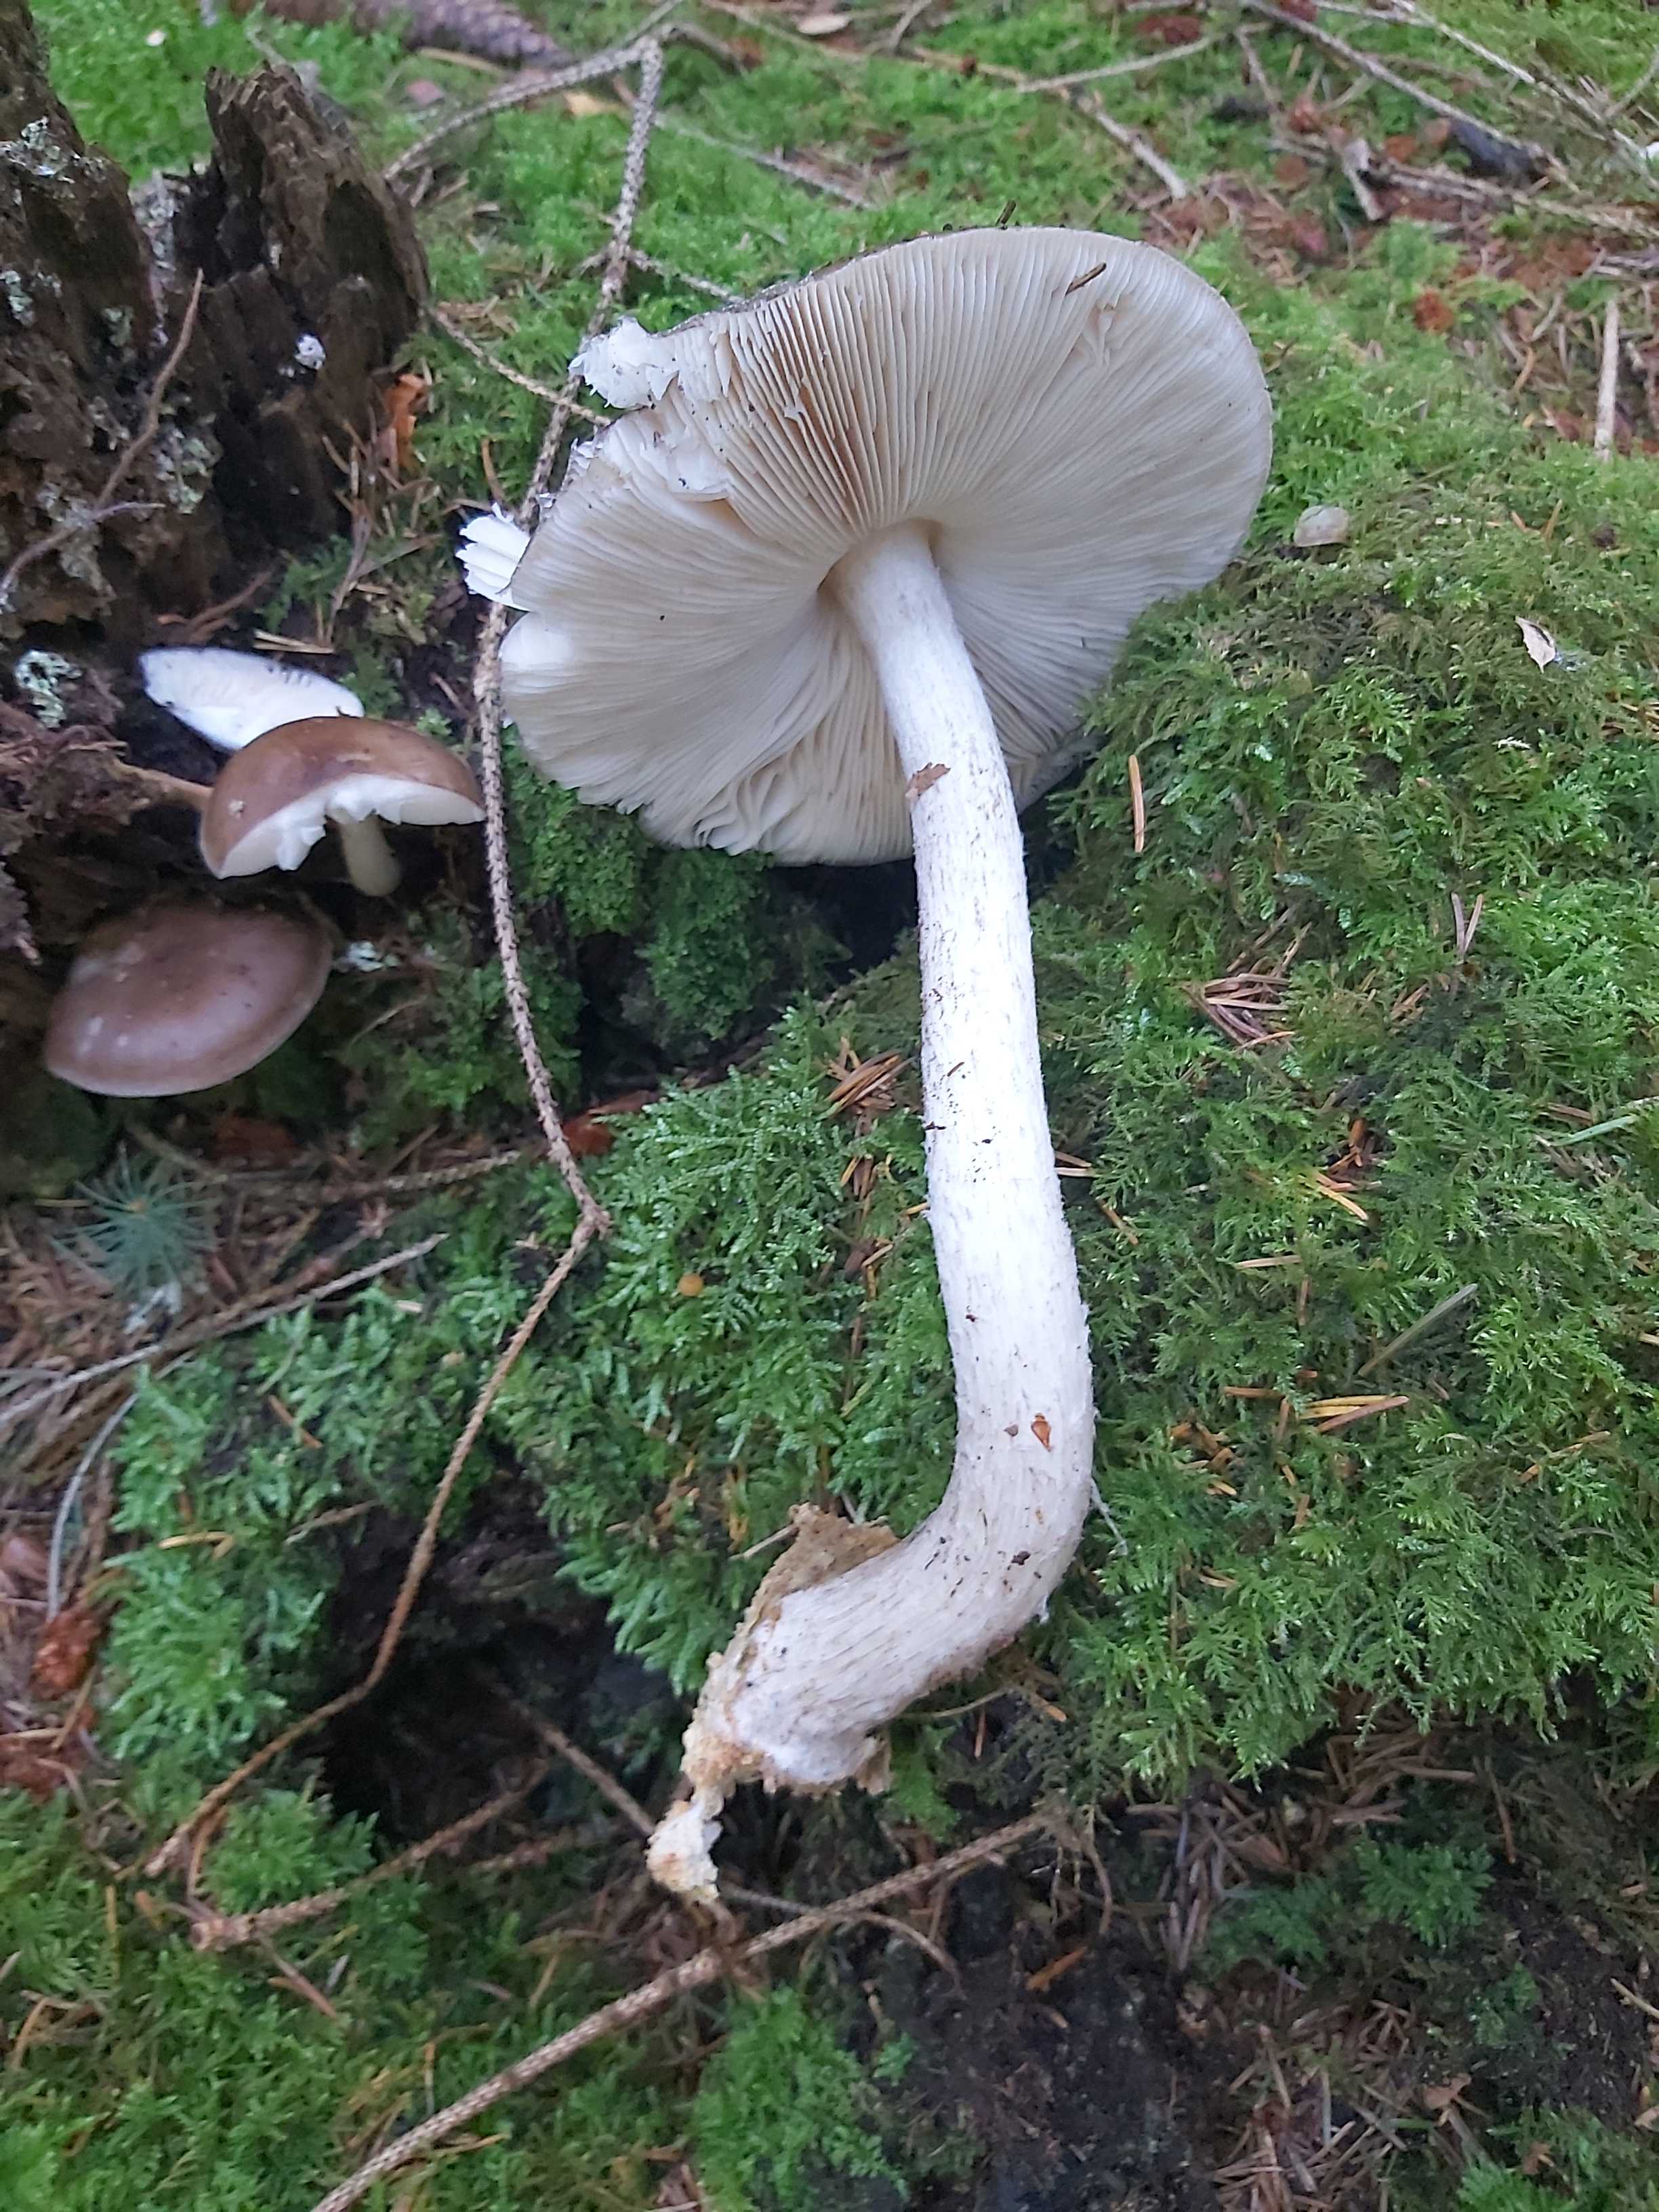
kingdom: Fungi
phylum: Basidiomycota
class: Agaricomycetes
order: Agaricales
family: Pluteaceae
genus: Pluteus
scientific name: Pluteus cervinus
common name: sodfarvet skærmhat
